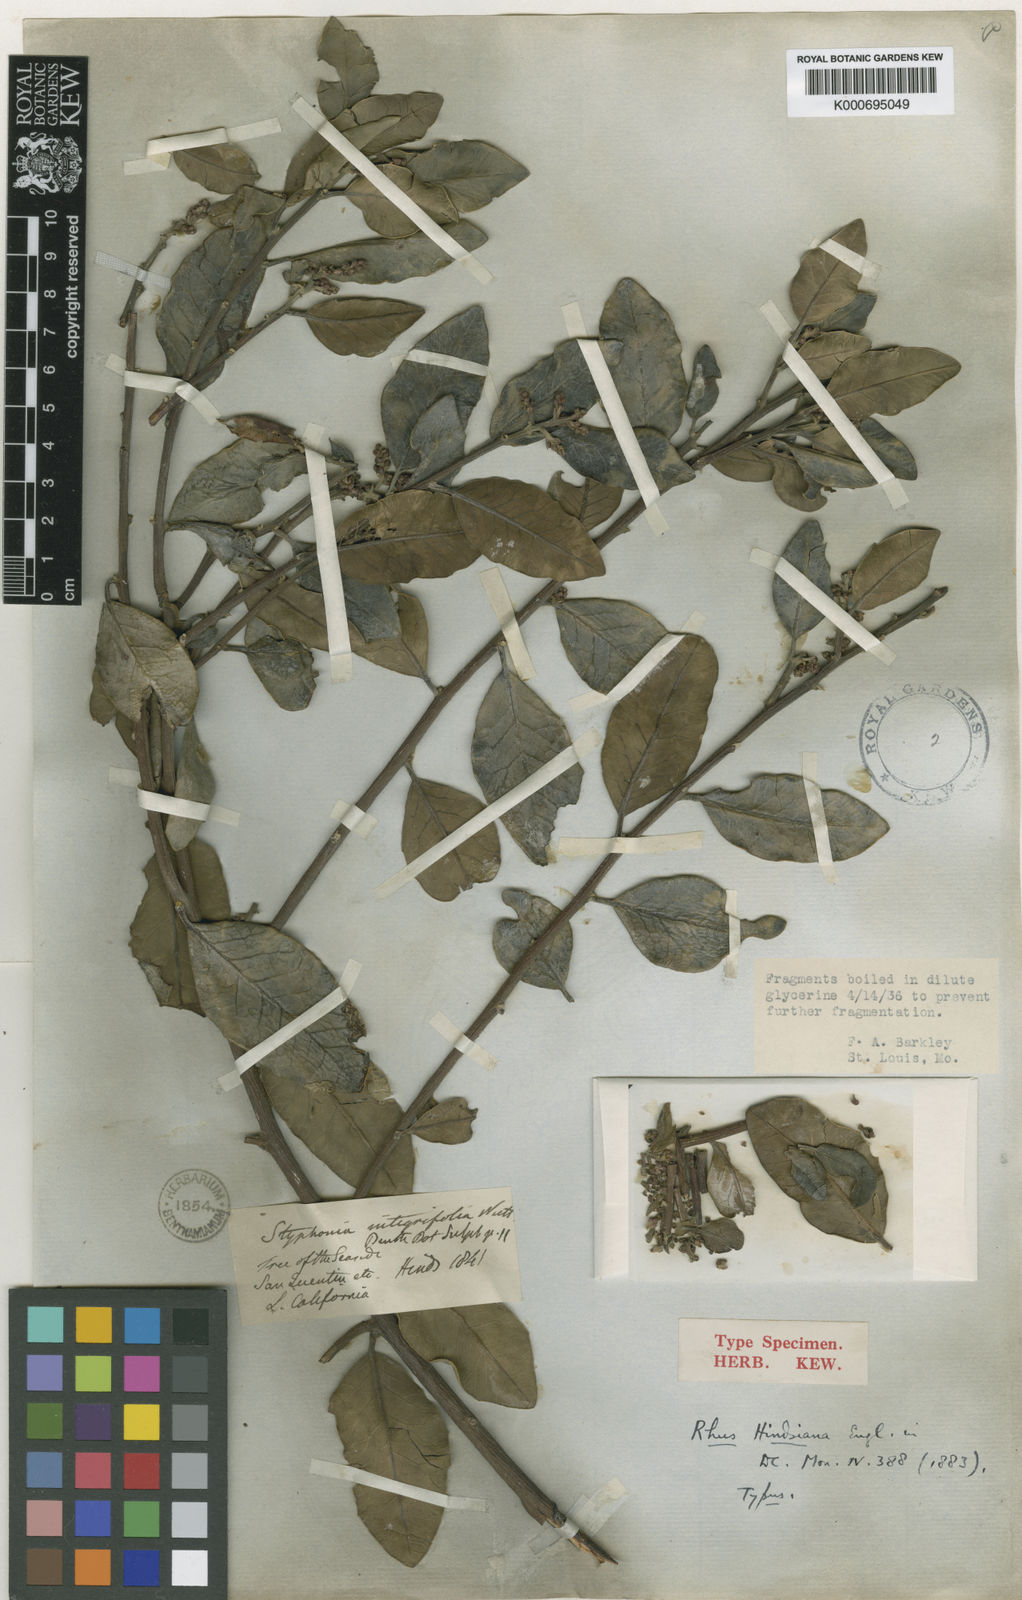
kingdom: Plantae
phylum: Tracheophyta
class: Magnoliopsida
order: Sapindales
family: Anacardiaceae
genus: Rhus
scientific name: Rhus integrifolia
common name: Lemonade sumac
